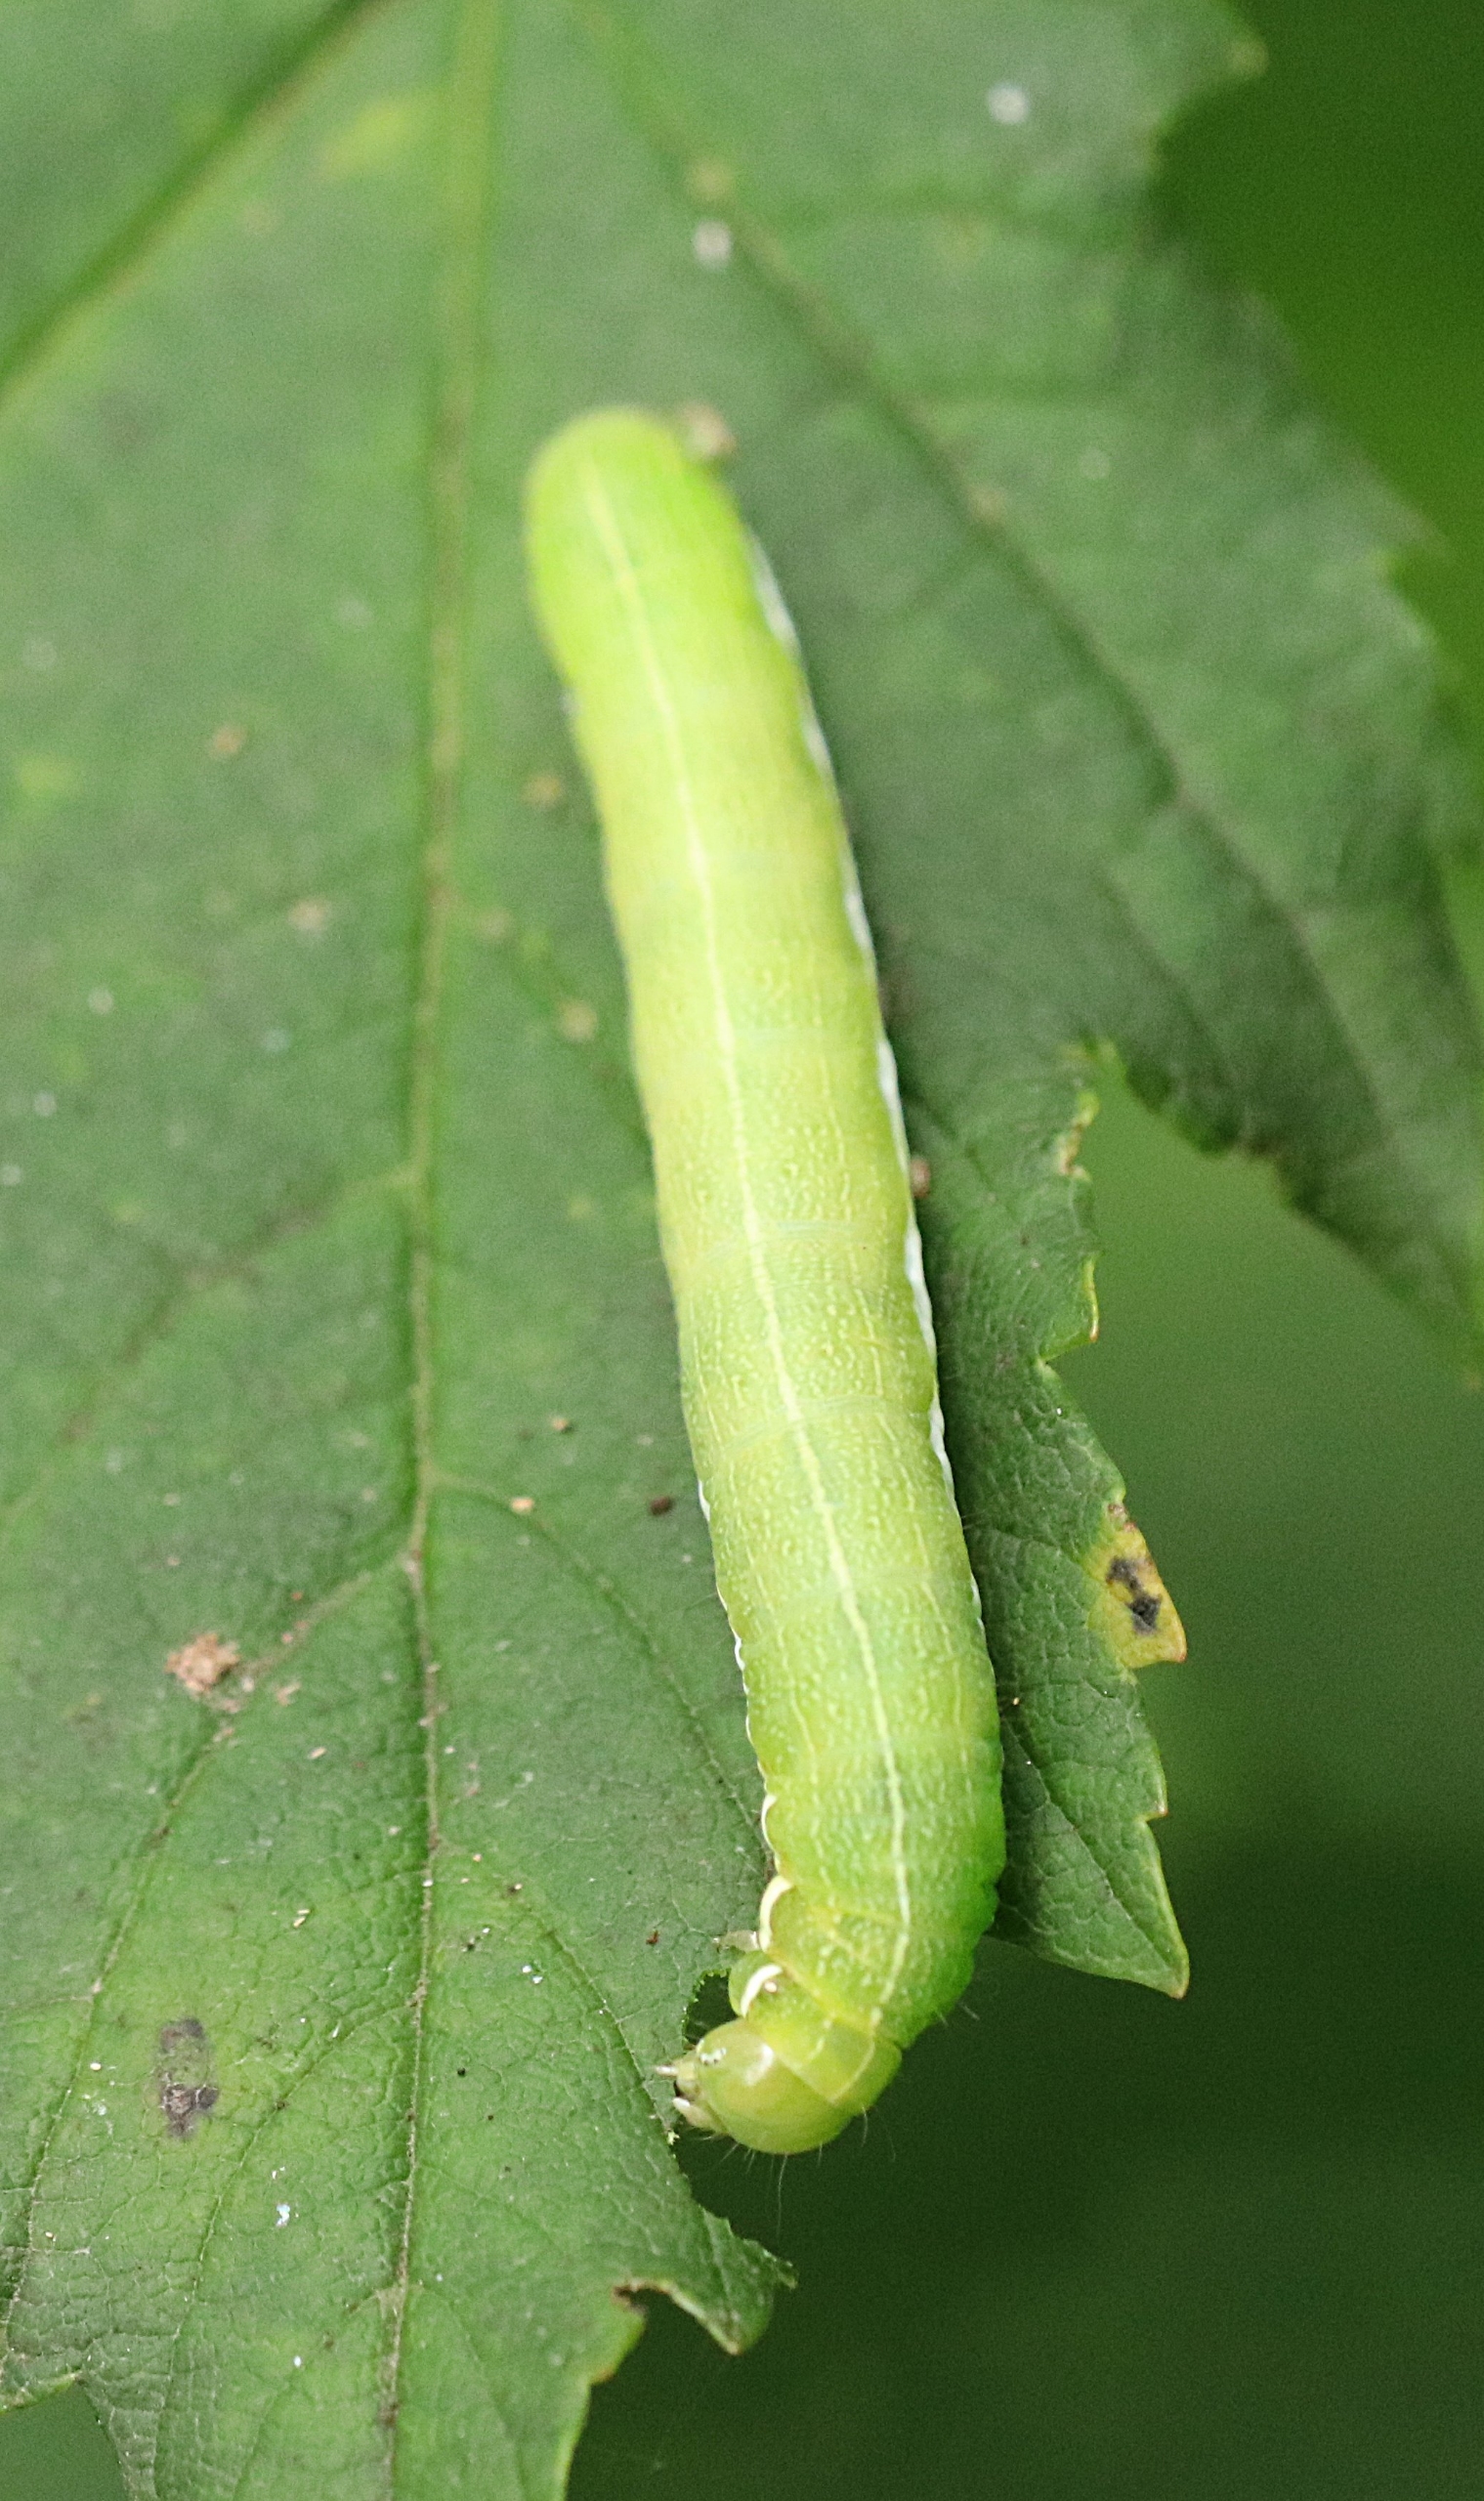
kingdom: Animalia
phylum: Arthropoda
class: Insecta
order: Lepidoptera
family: Noctuidae
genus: Orthosia
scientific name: Orthosia gothica
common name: Gotisk forårsugle
